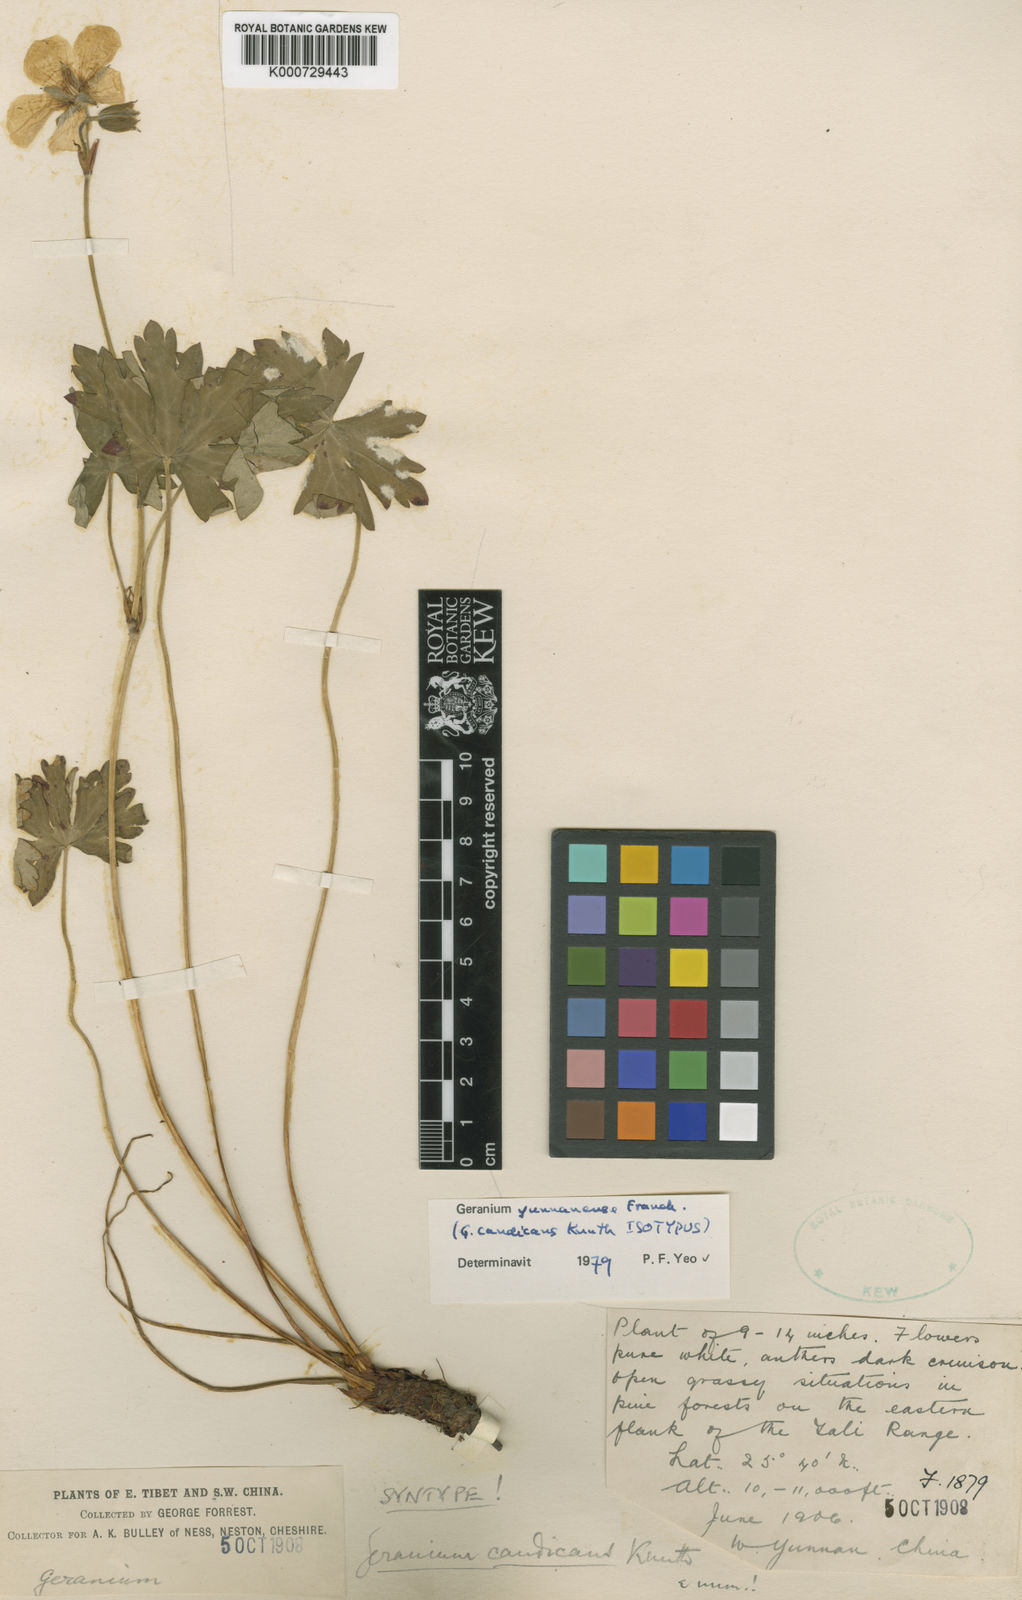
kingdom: Plantae
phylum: Tracheophyta
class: Magnoliopsida
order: Geraniales
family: Geraniaceae
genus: Geranium
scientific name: Geranium yunnanense
